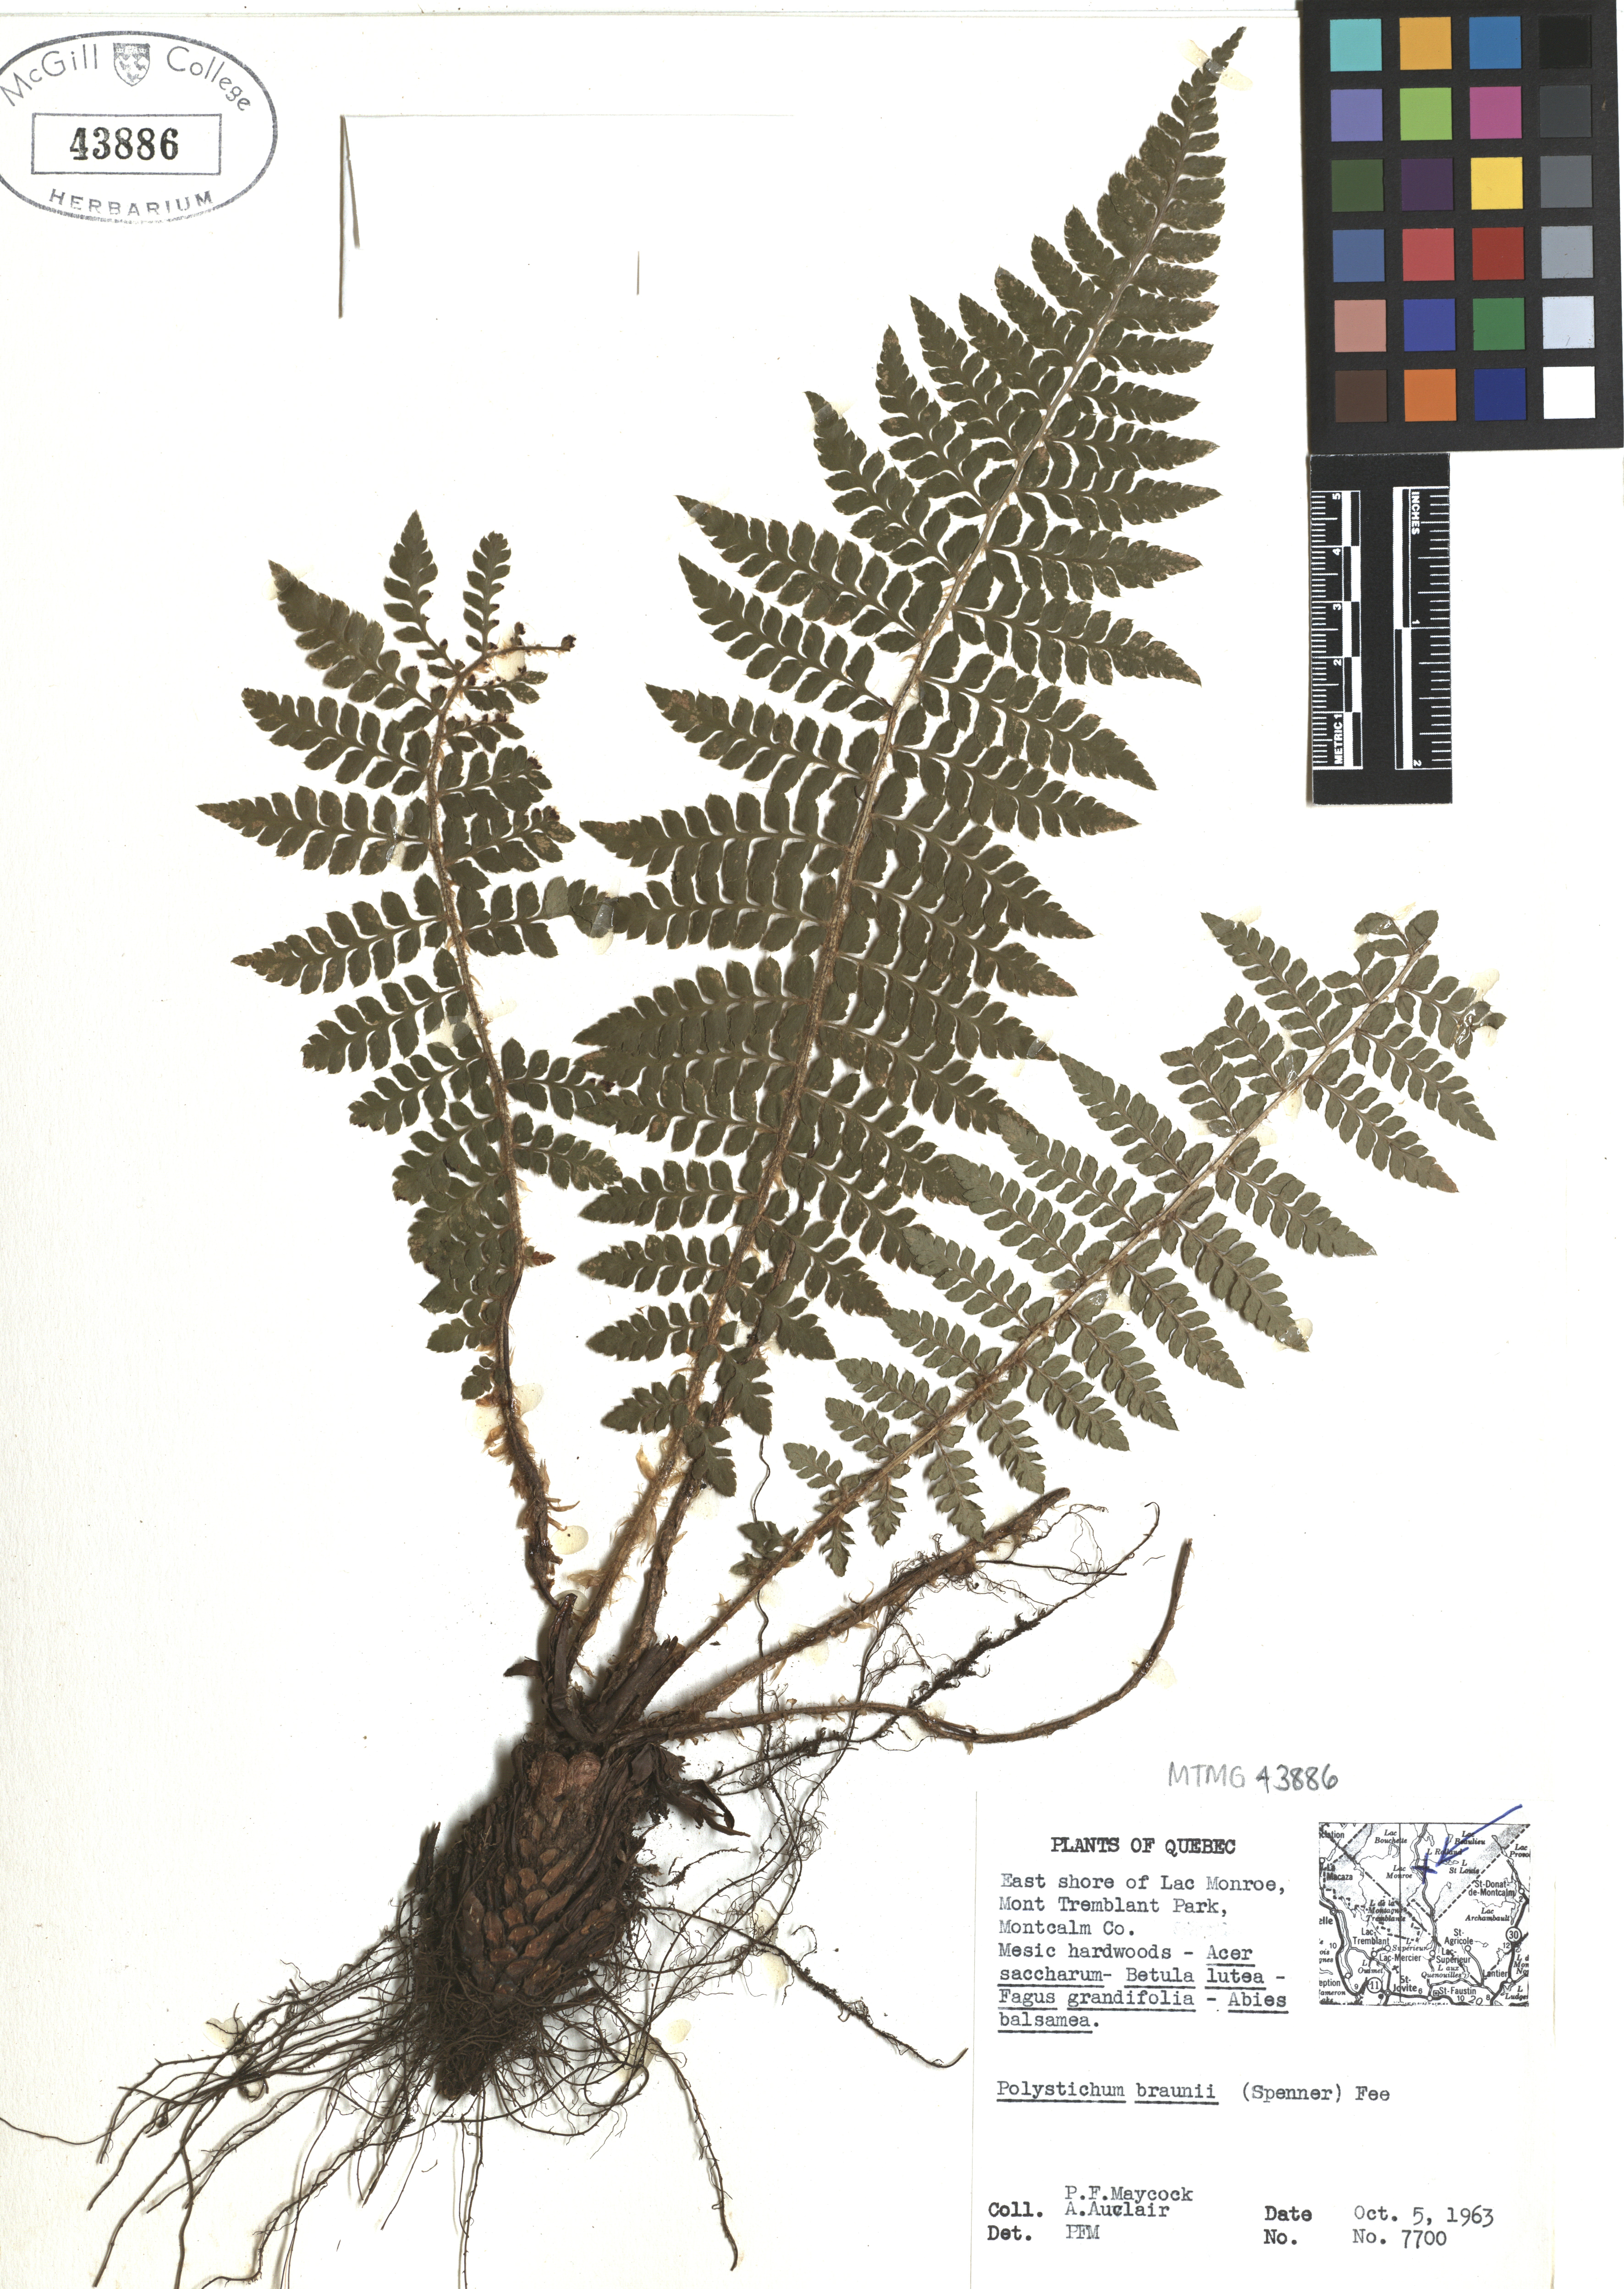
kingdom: Plantae
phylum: Tracheophyta
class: Polypodiopsida
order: Polypodiales
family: Dryopteridaceae
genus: Polystichum
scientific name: Polystichum braunii
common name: Braun's holly fern
